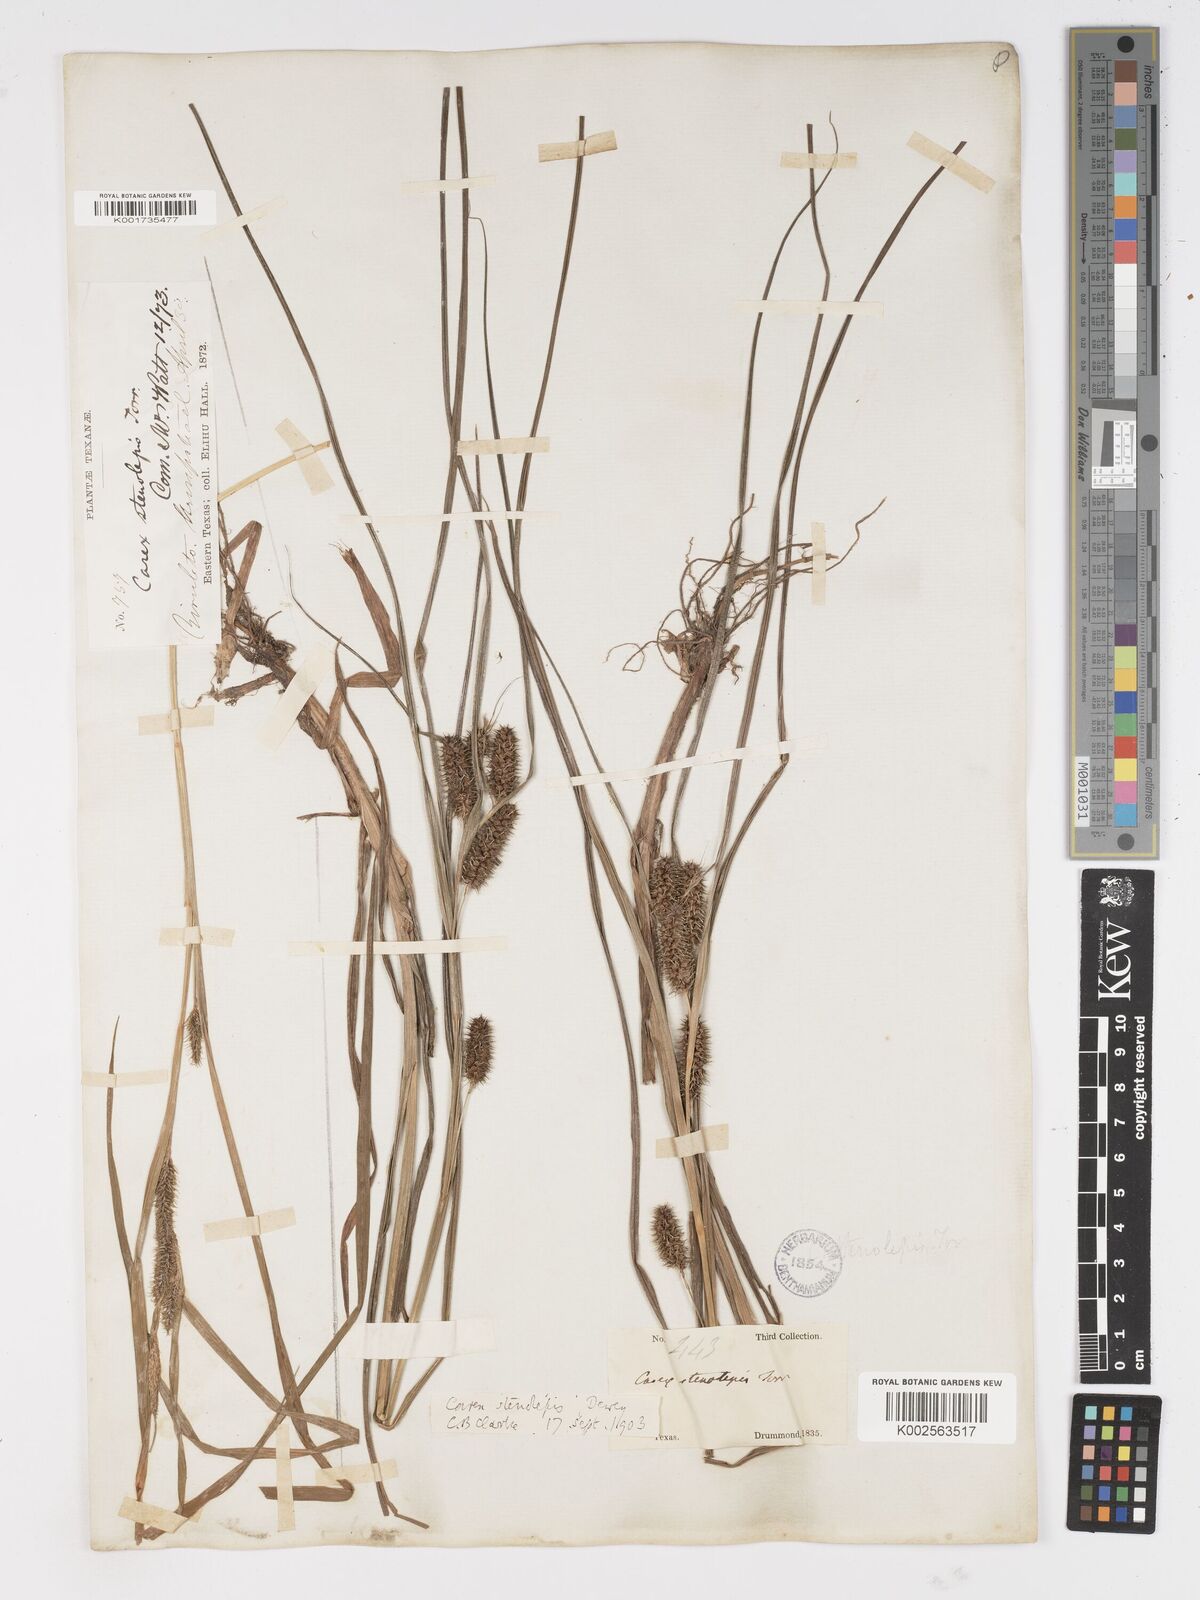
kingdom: Plantae
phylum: Tracheophyta
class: Liliopsida
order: Poales
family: Cyperaceae
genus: Carex
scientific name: Carex frankii
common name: Frank's sedge
